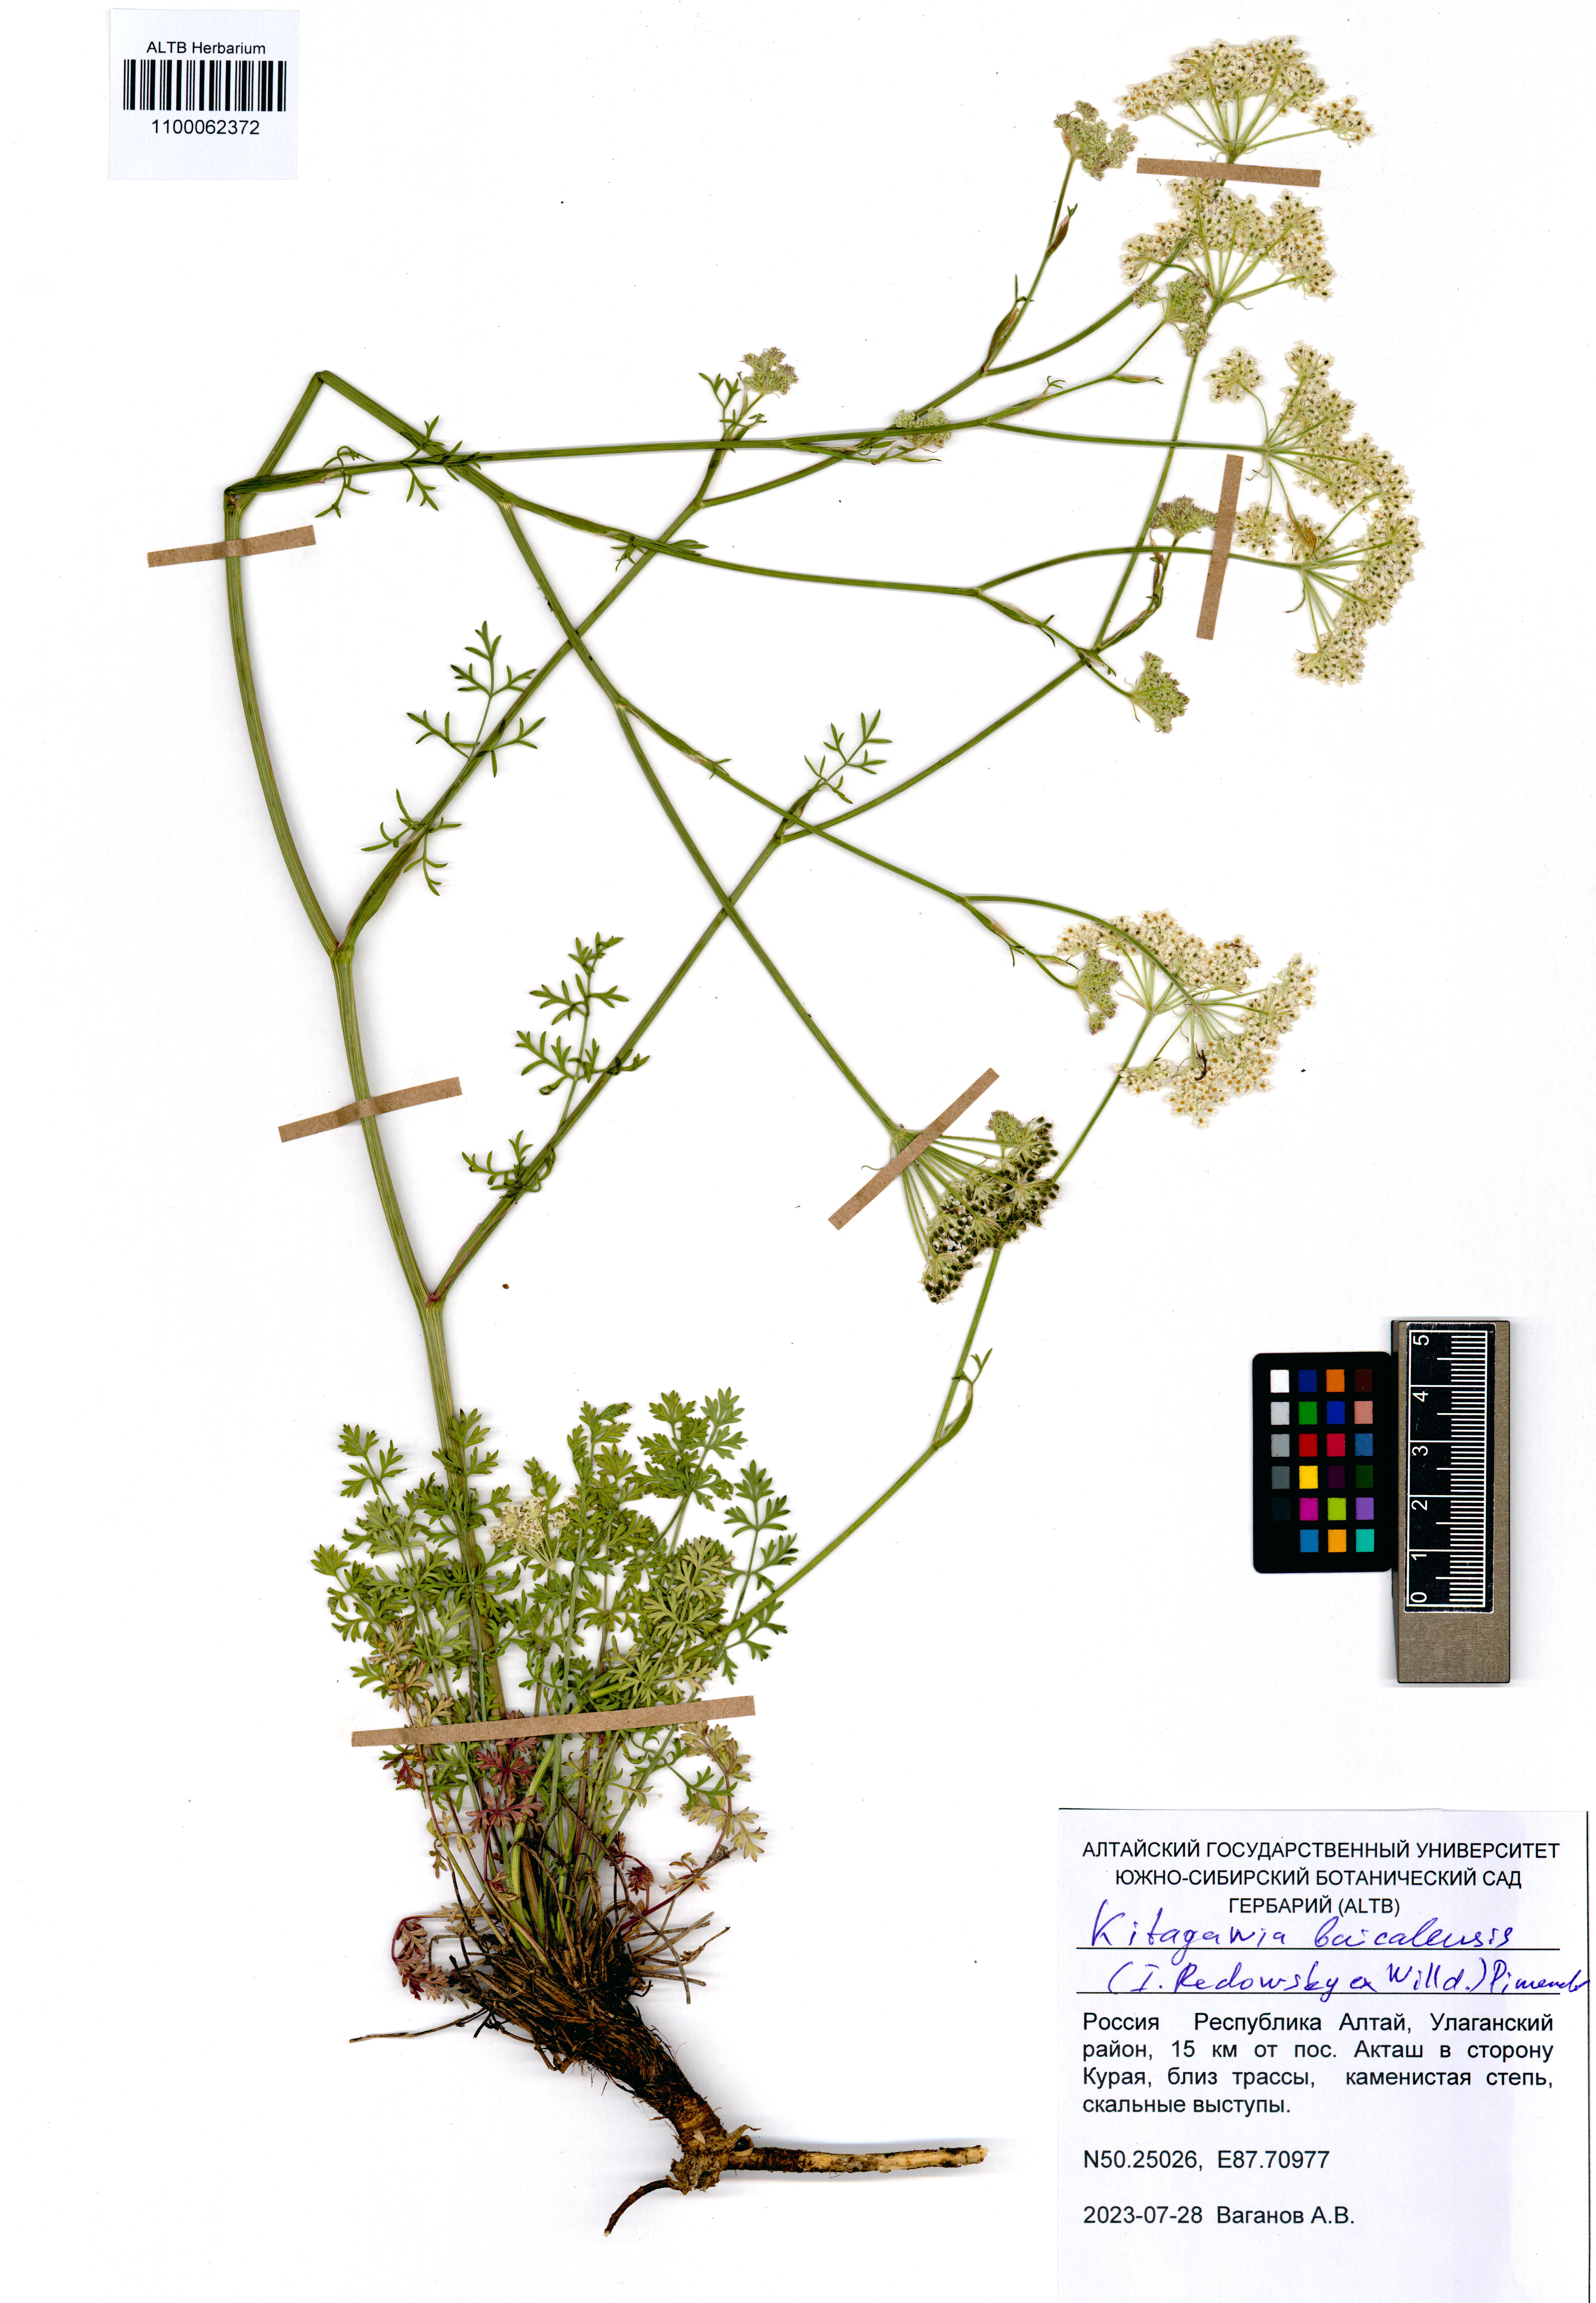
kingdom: Plantae
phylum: Tracheophyta
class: Magnoliopsida
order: Apiales
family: Apiaceae
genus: Kitagawia
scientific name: Kitagawia baicalensis
